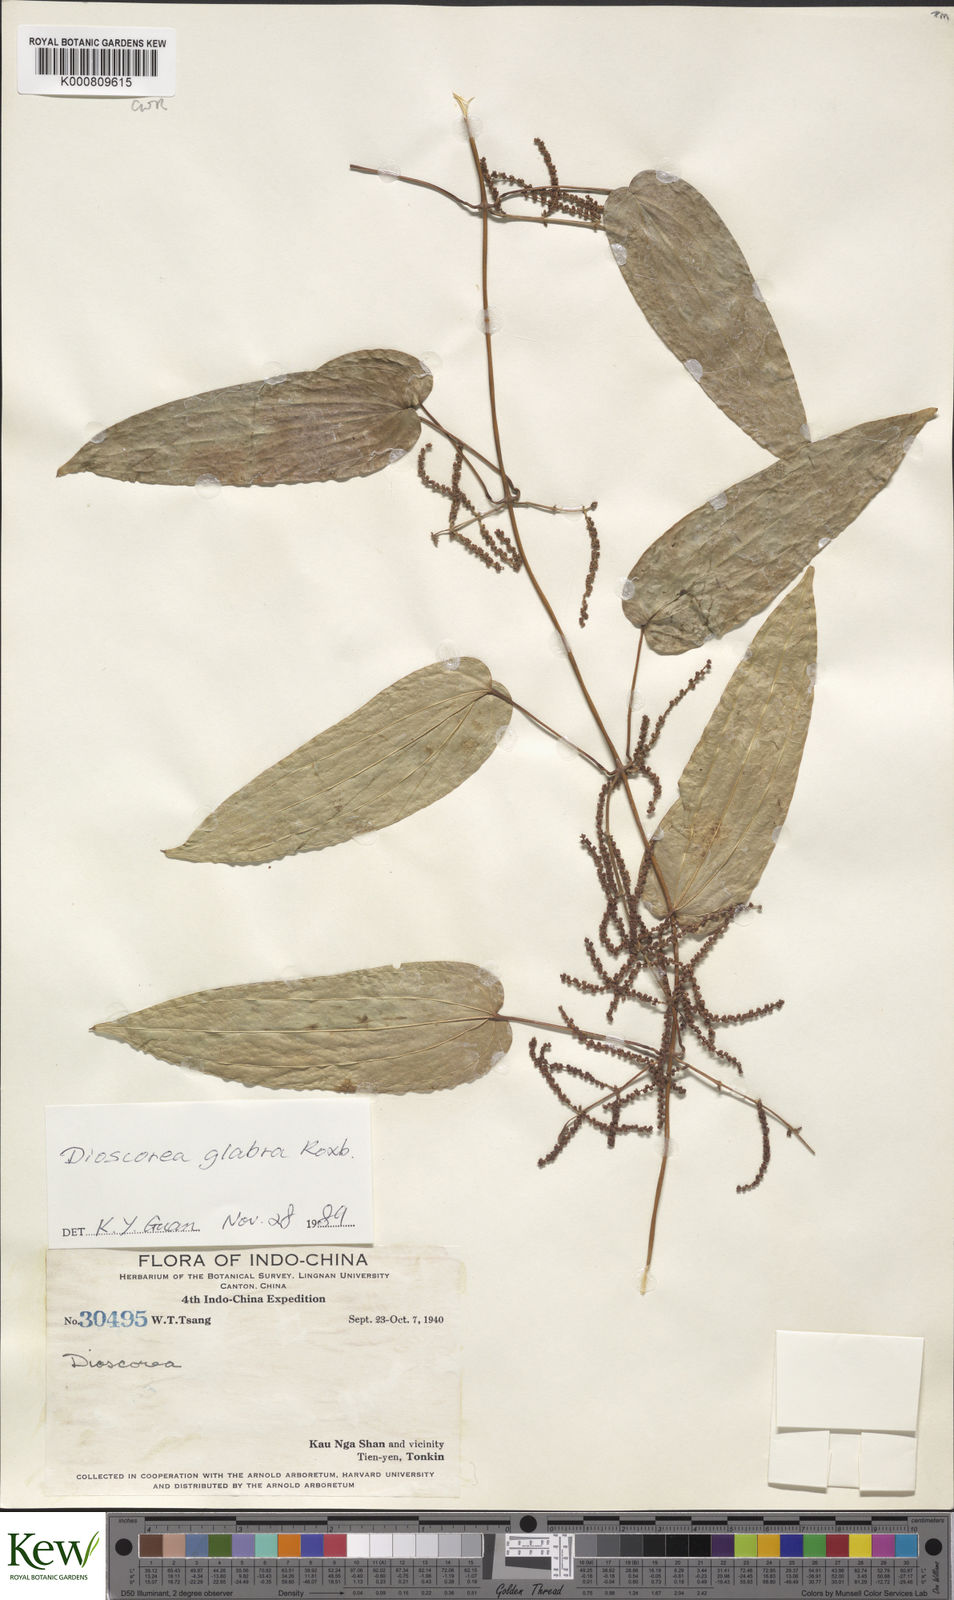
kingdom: Plantae
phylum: Tracheophyta
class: Liliopsida
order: Dioscoreales
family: Dioscoreaceae
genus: Dioscorea
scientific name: Dioscorea glabra
